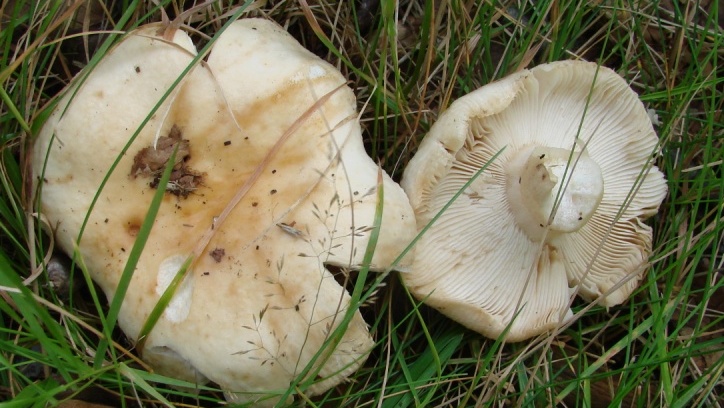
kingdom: Fungi
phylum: Basidiomycota
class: Agaricomycetes
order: Russulales
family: Russulaceae
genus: Russula
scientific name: Russula
